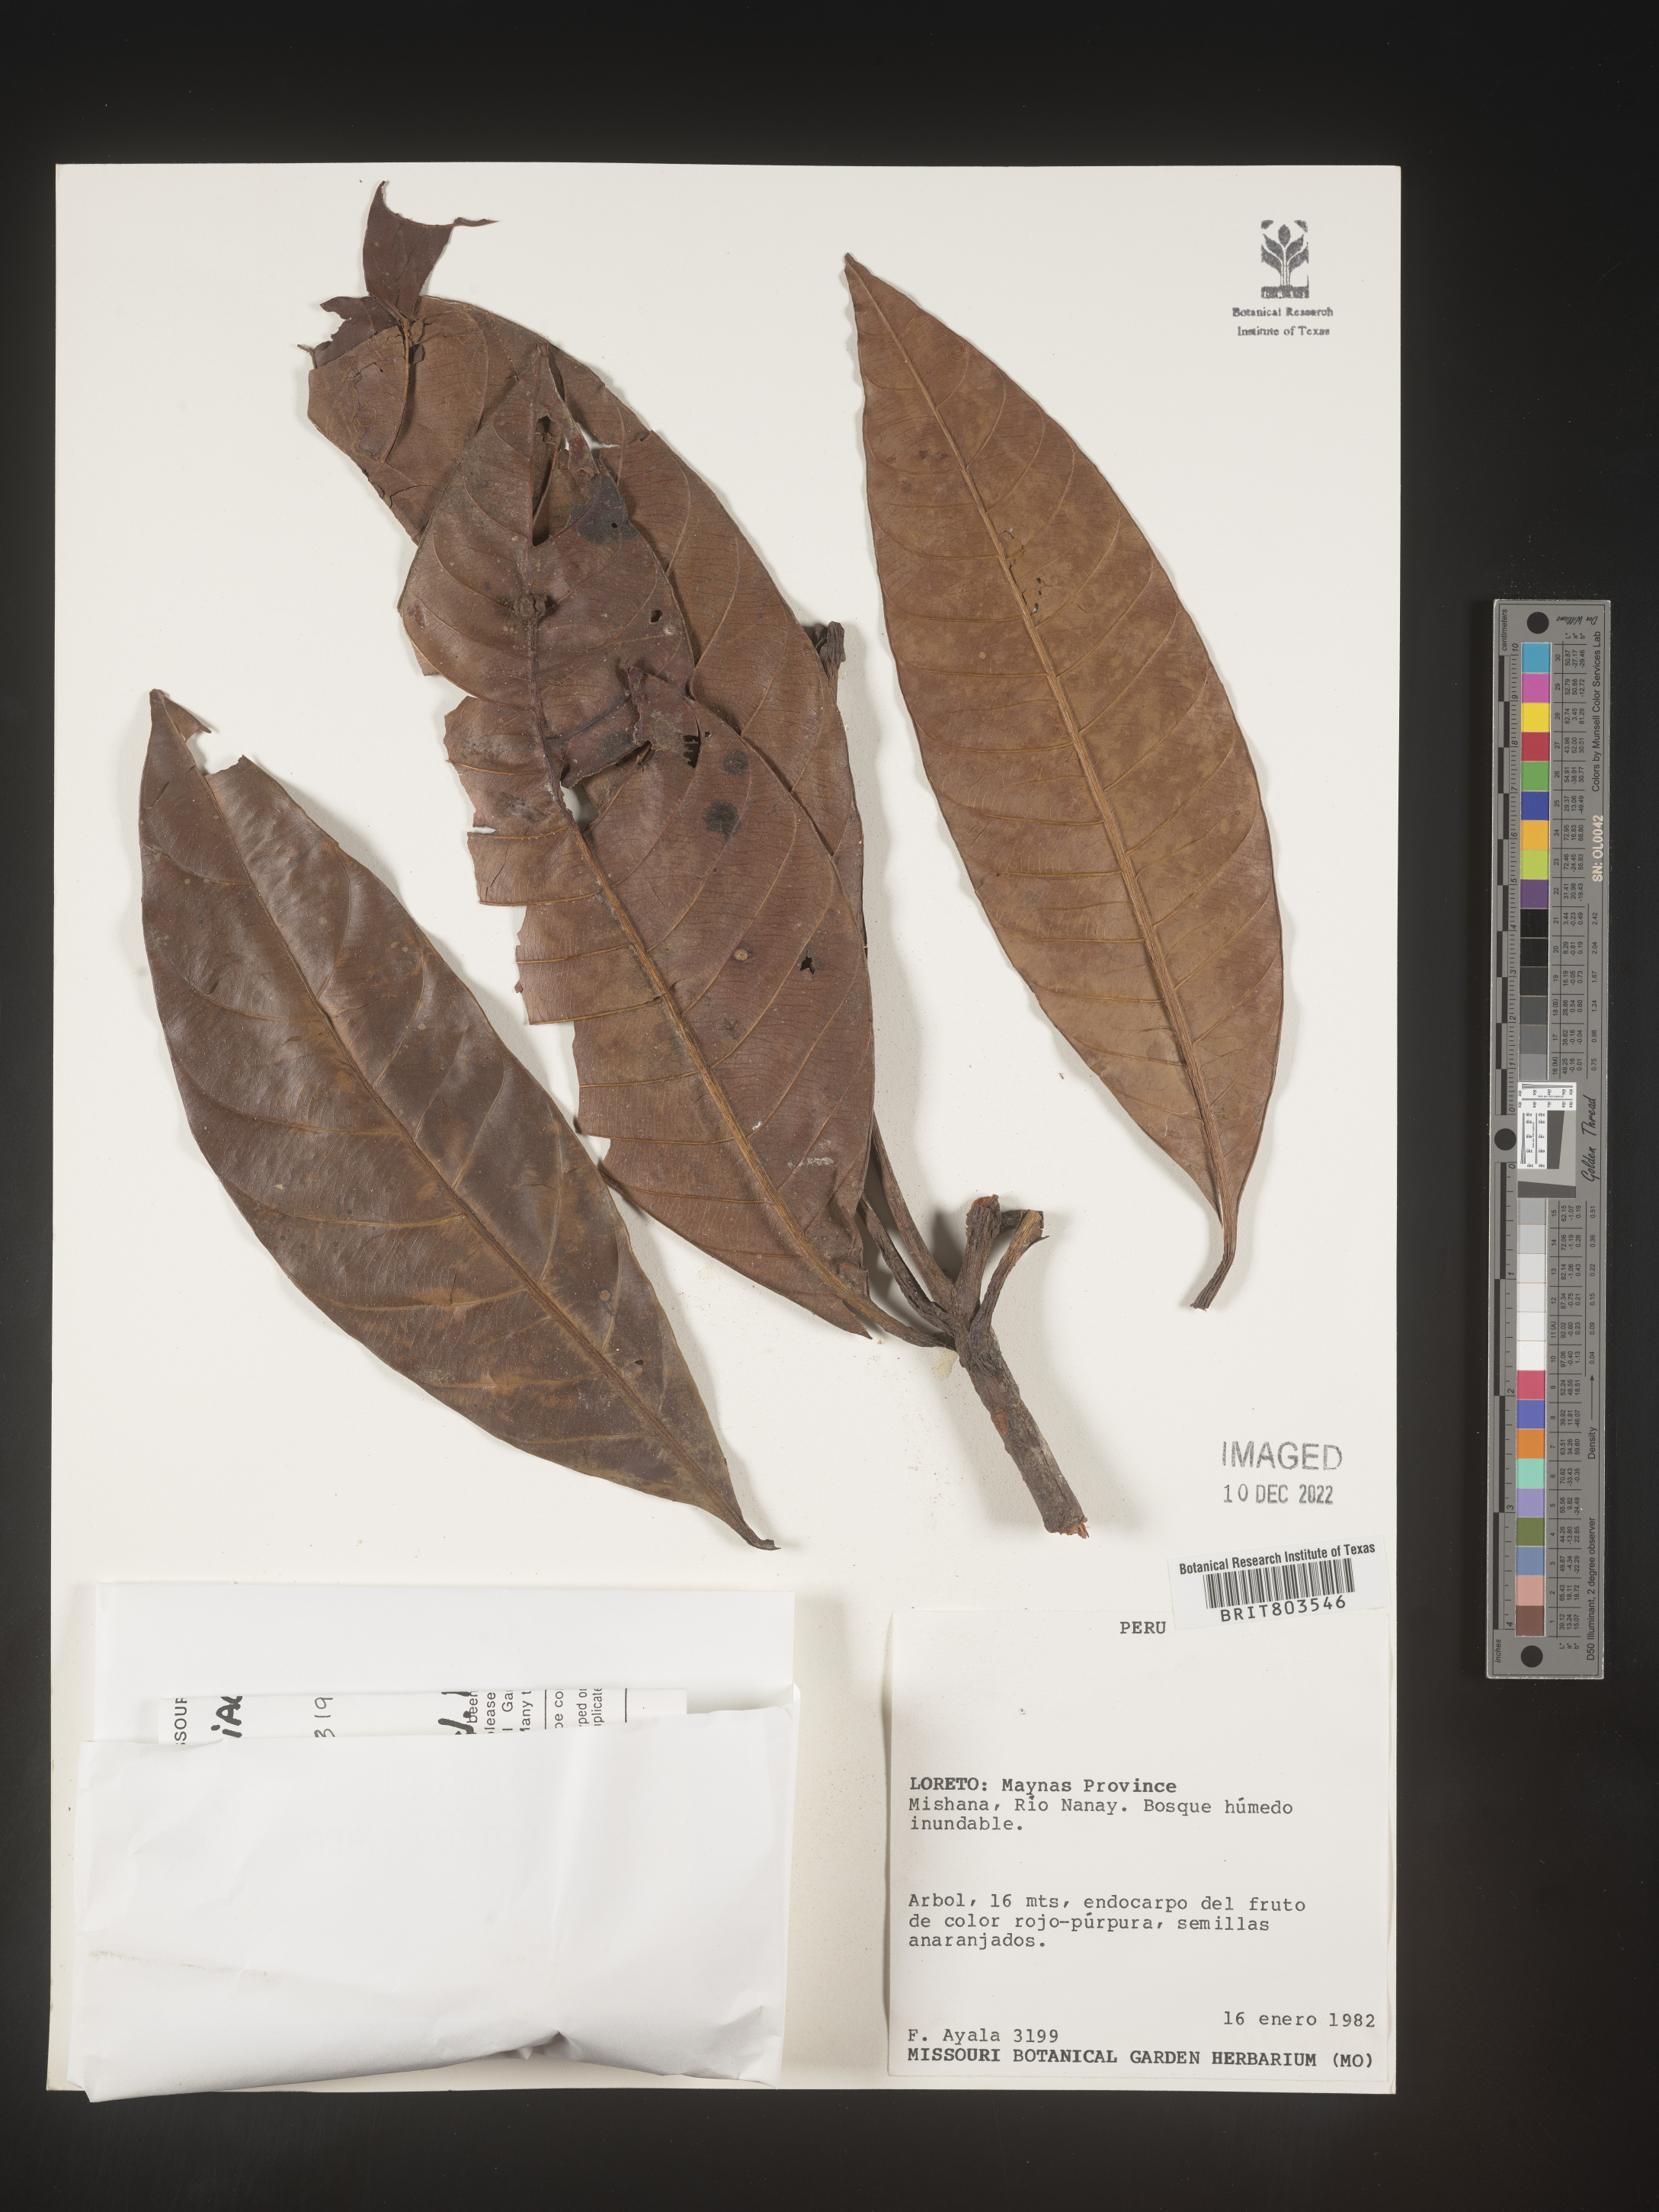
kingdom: Plantae
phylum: Tracheophyta
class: Magnoliopsida
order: Malpighiales
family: Clusiaceae
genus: Tovomita
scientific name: Tovomita
